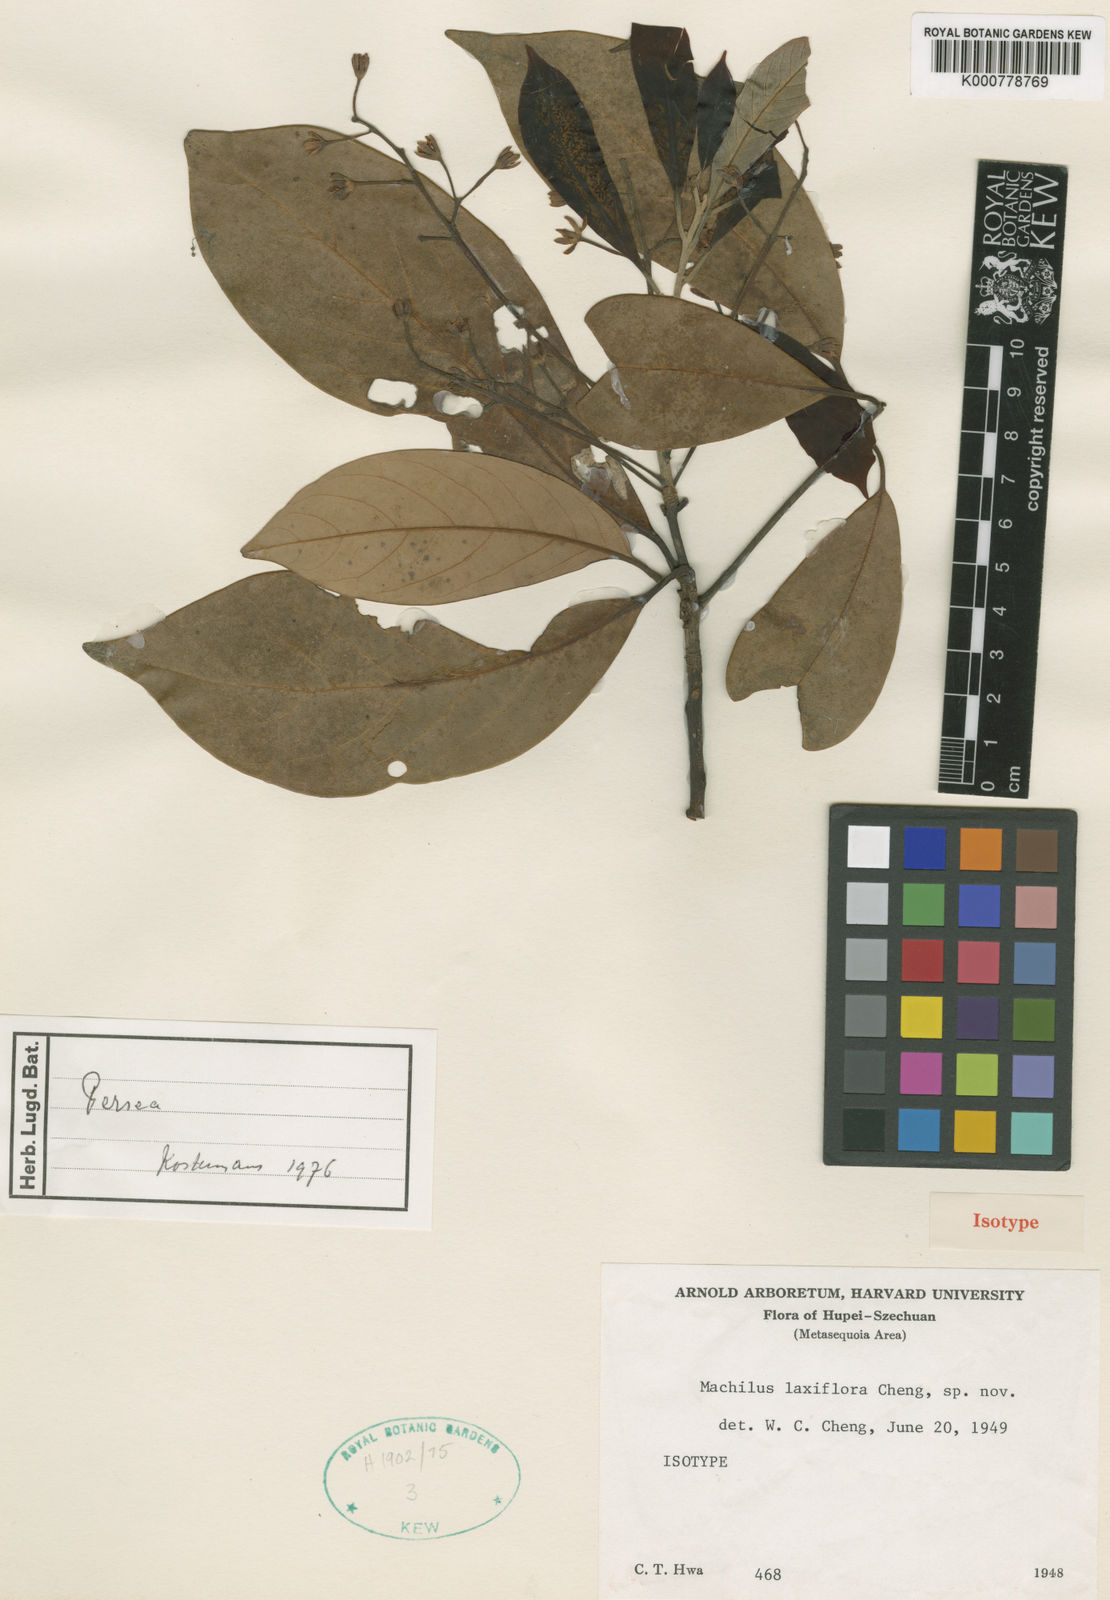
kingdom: Plantae
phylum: Tracheophyta
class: Magnoliopsida
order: Laurales
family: Lauraceae
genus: Machilus
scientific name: Machilus
